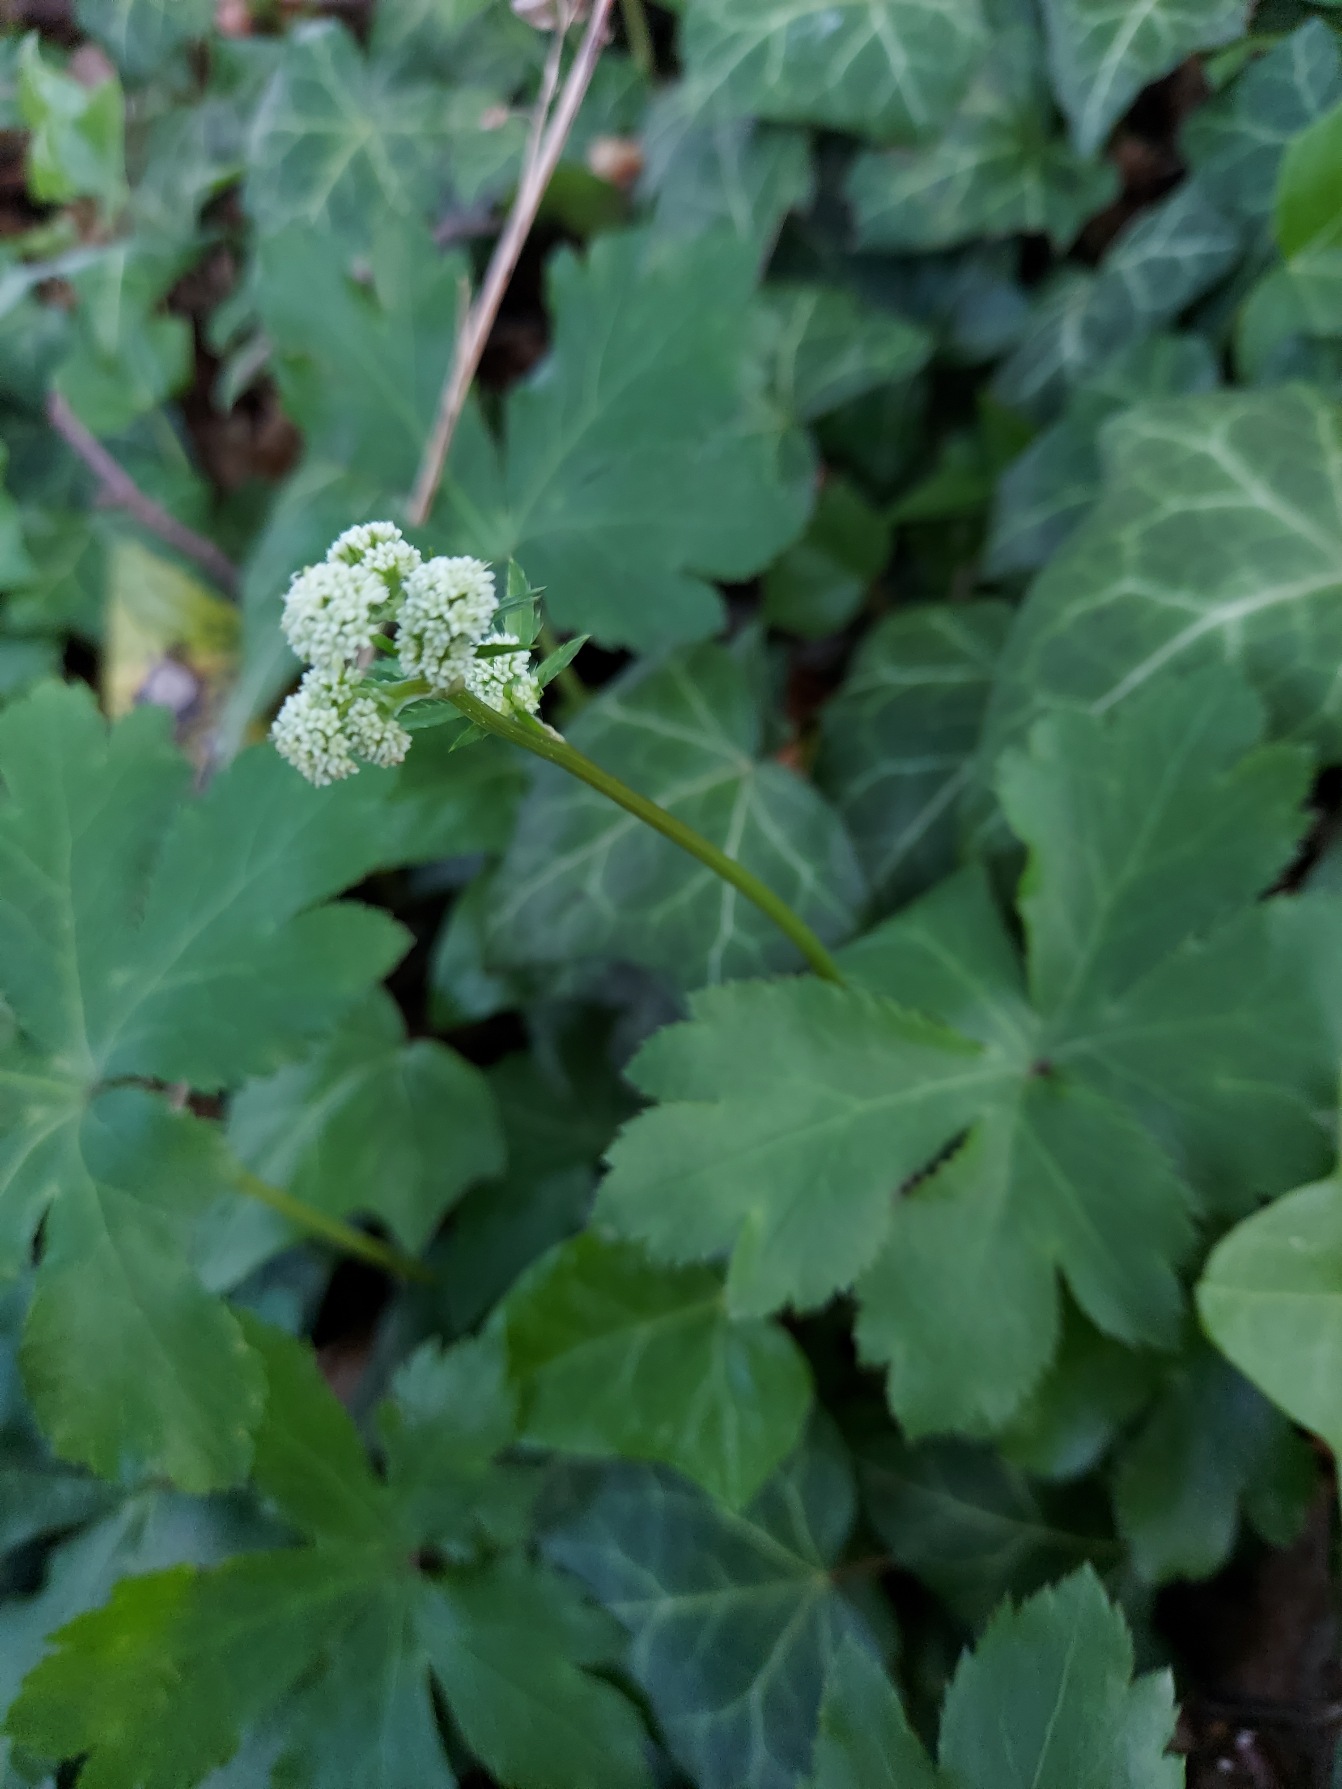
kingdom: Plantae
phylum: Tracheophyta
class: Magnoliopsida
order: Apiales
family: Apiaceae
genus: Sanicula
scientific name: Sanicula europaea
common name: Sanikel
